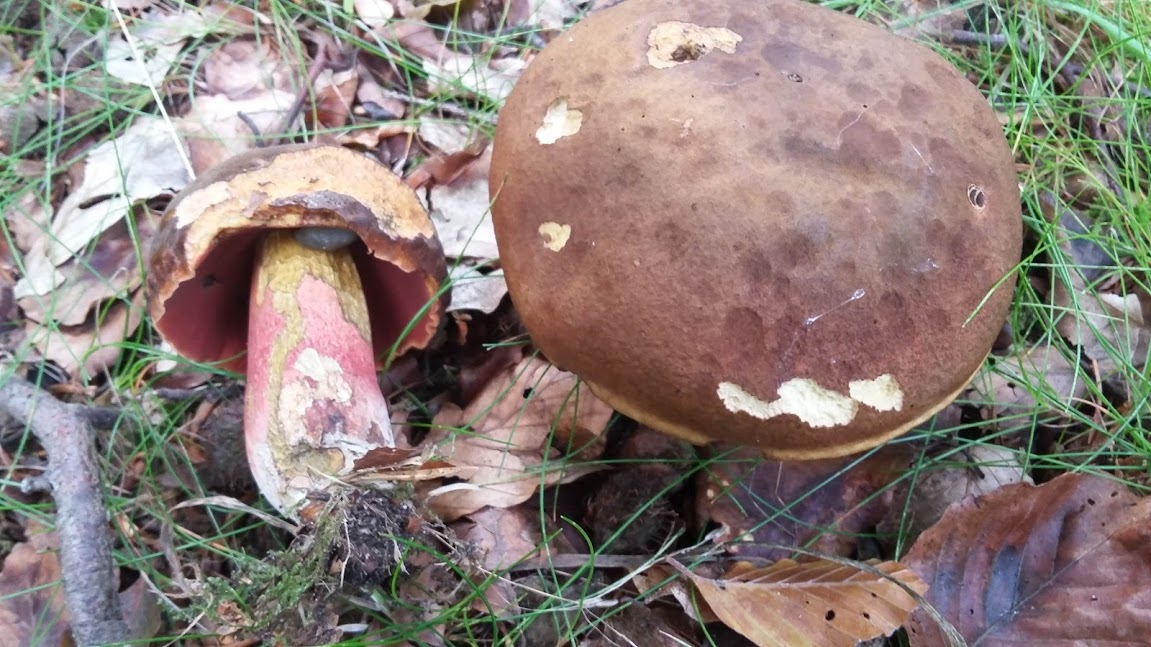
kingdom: Fungi
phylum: Basidiomycota
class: Agaricomycetes
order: Boletales
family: Boletaceae
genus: Neoboletus
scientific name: Neoboletus erythropus
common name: punktstokket indigorørhat
